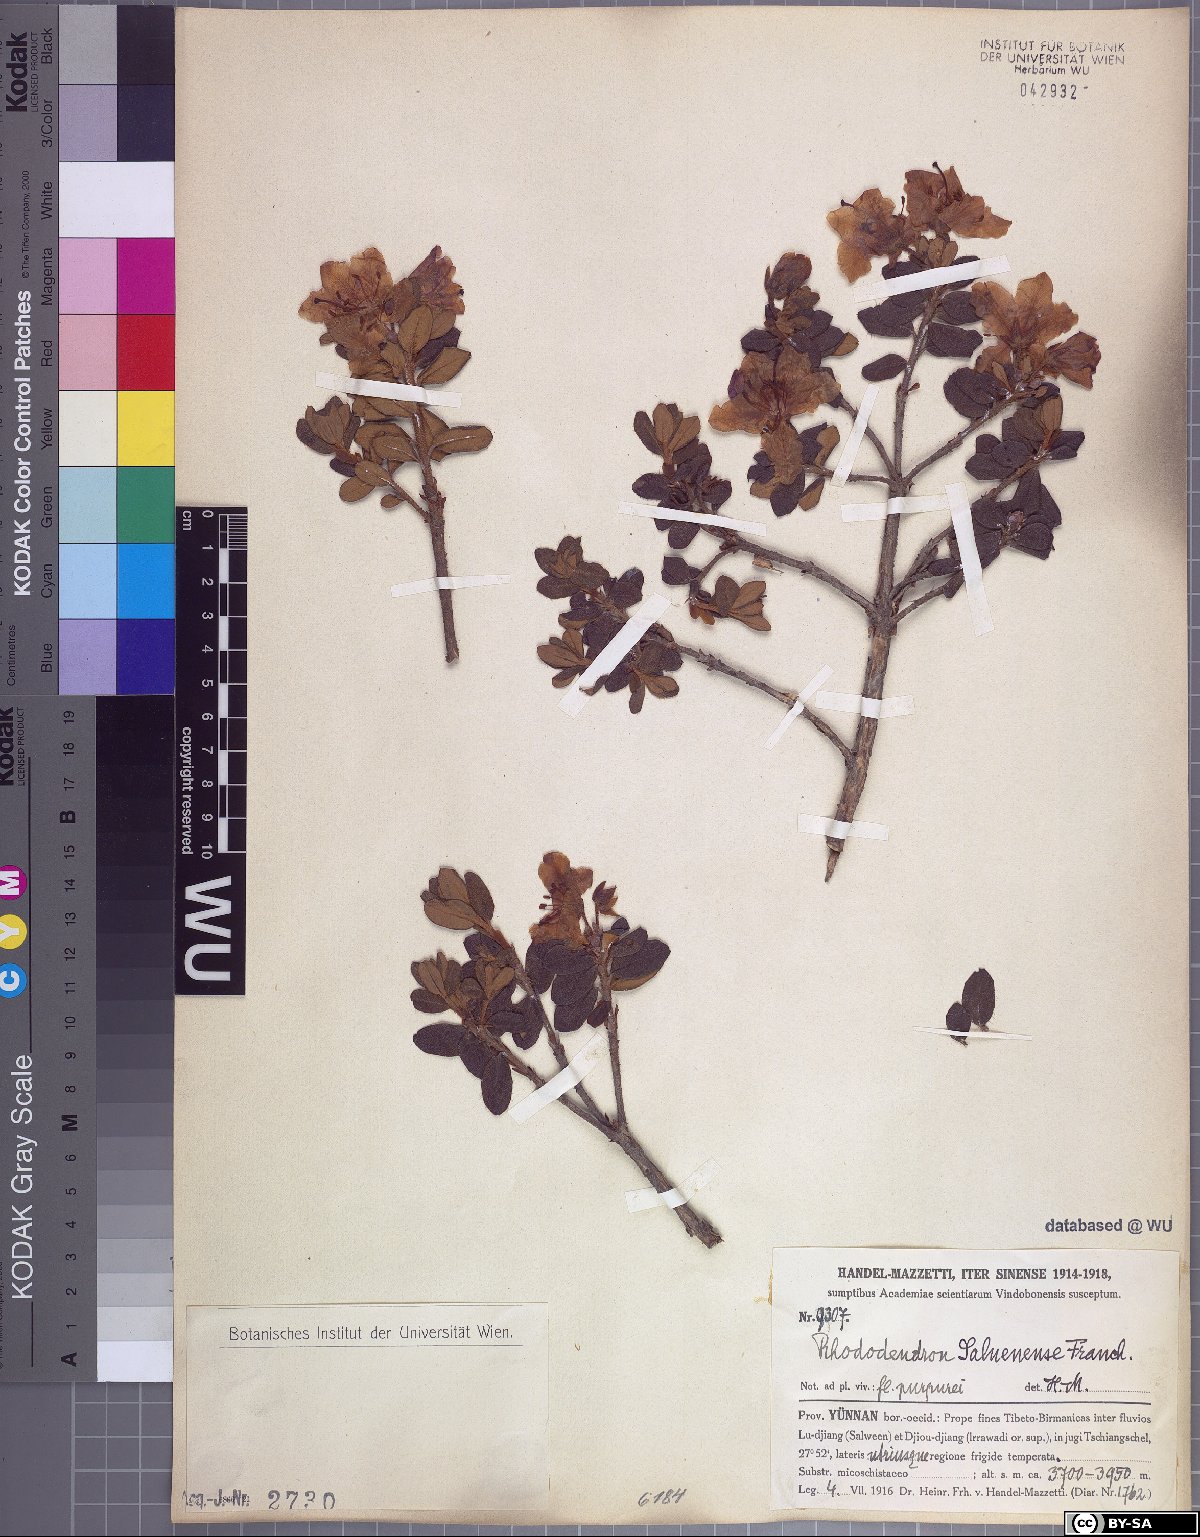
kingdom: Plantae
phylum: Tracheophyta
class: Magnoliopsida
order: Ericales
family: Ericaceae
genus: Rhododendron
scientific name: Rhododendron saluenense
